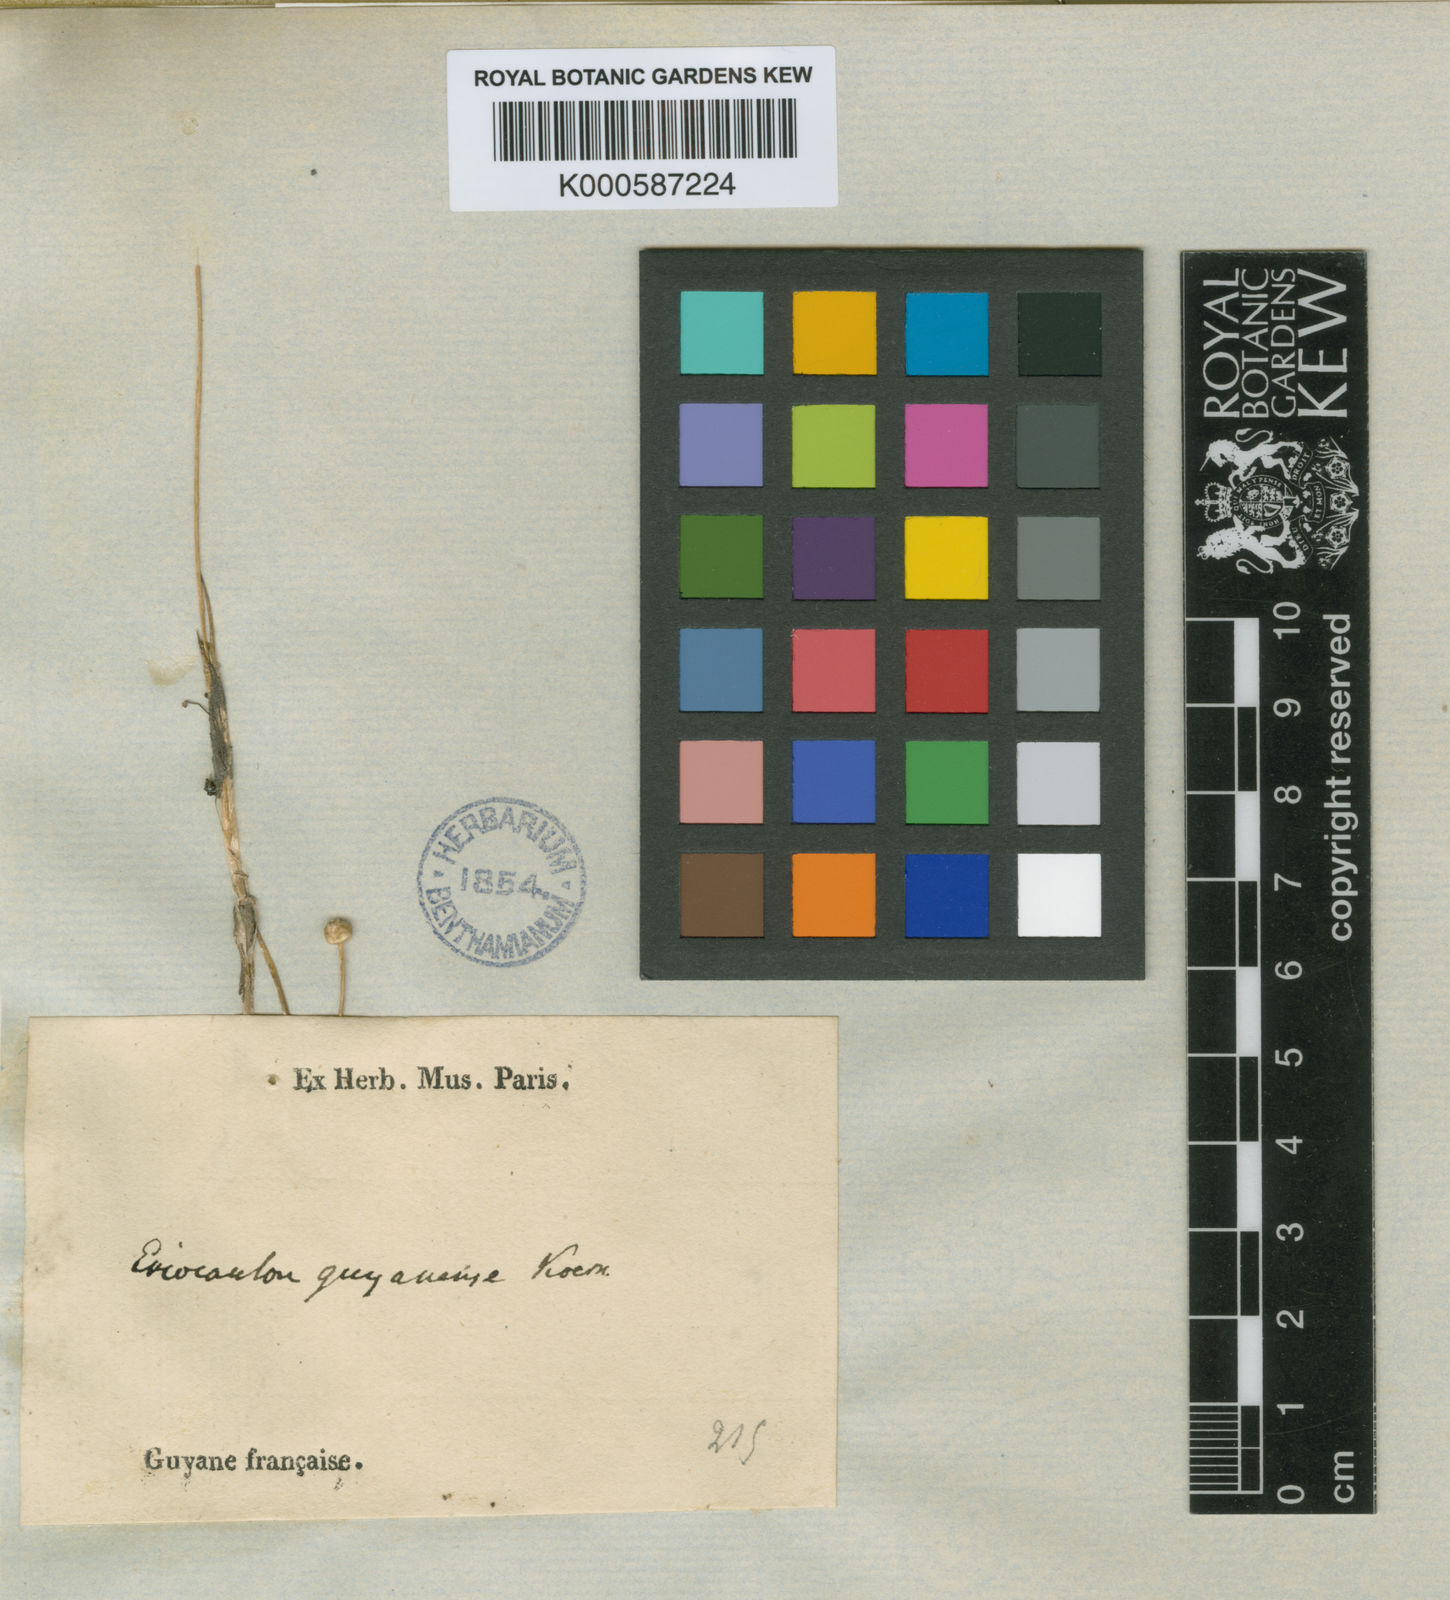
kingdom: Plantae
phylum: Tracheophyta
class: Liliopsida
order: Poales
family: Eriocaulaceae
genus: Eriocaulon
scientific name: Eriocaulon
